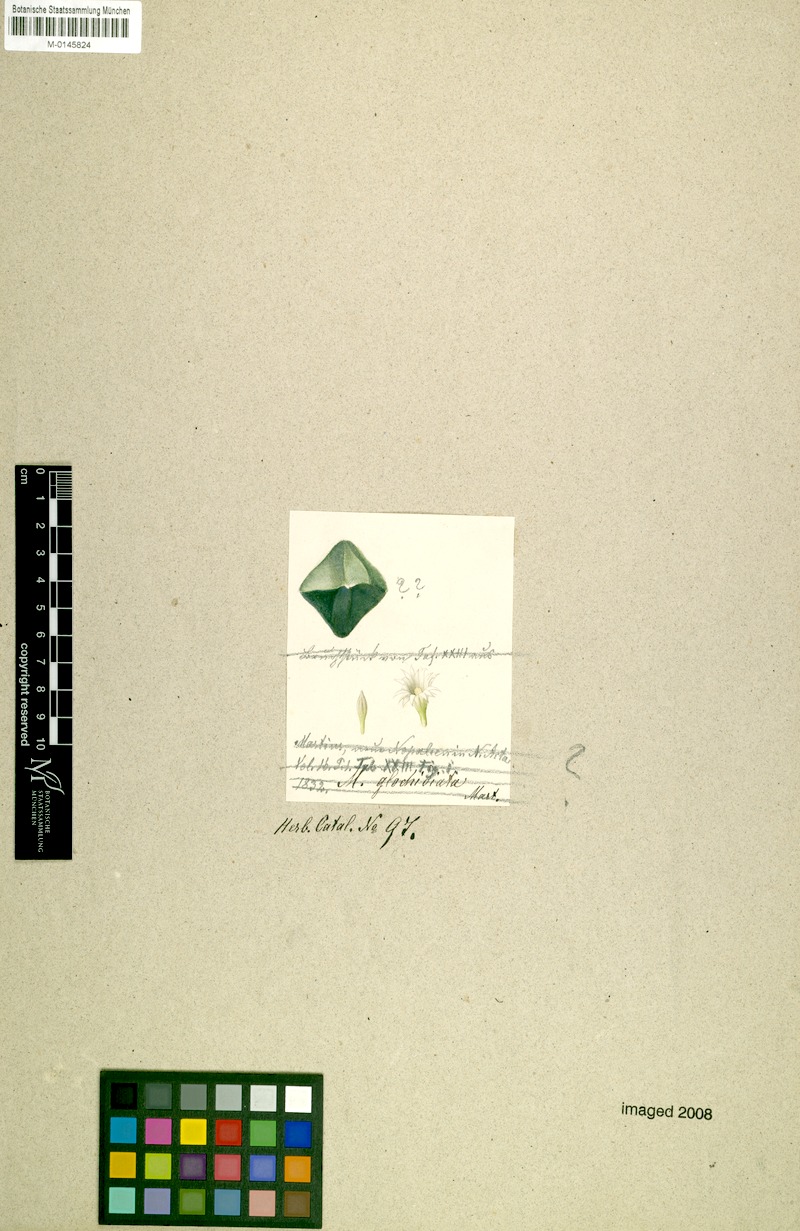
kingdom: Plantae
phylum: Tracheophyta
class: Magnoliopsida
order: Caryophyllales
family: Cactaceae
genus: Mammillaria
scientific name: Mammillaria glochidiata
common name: Fishhook pincushion cactus
